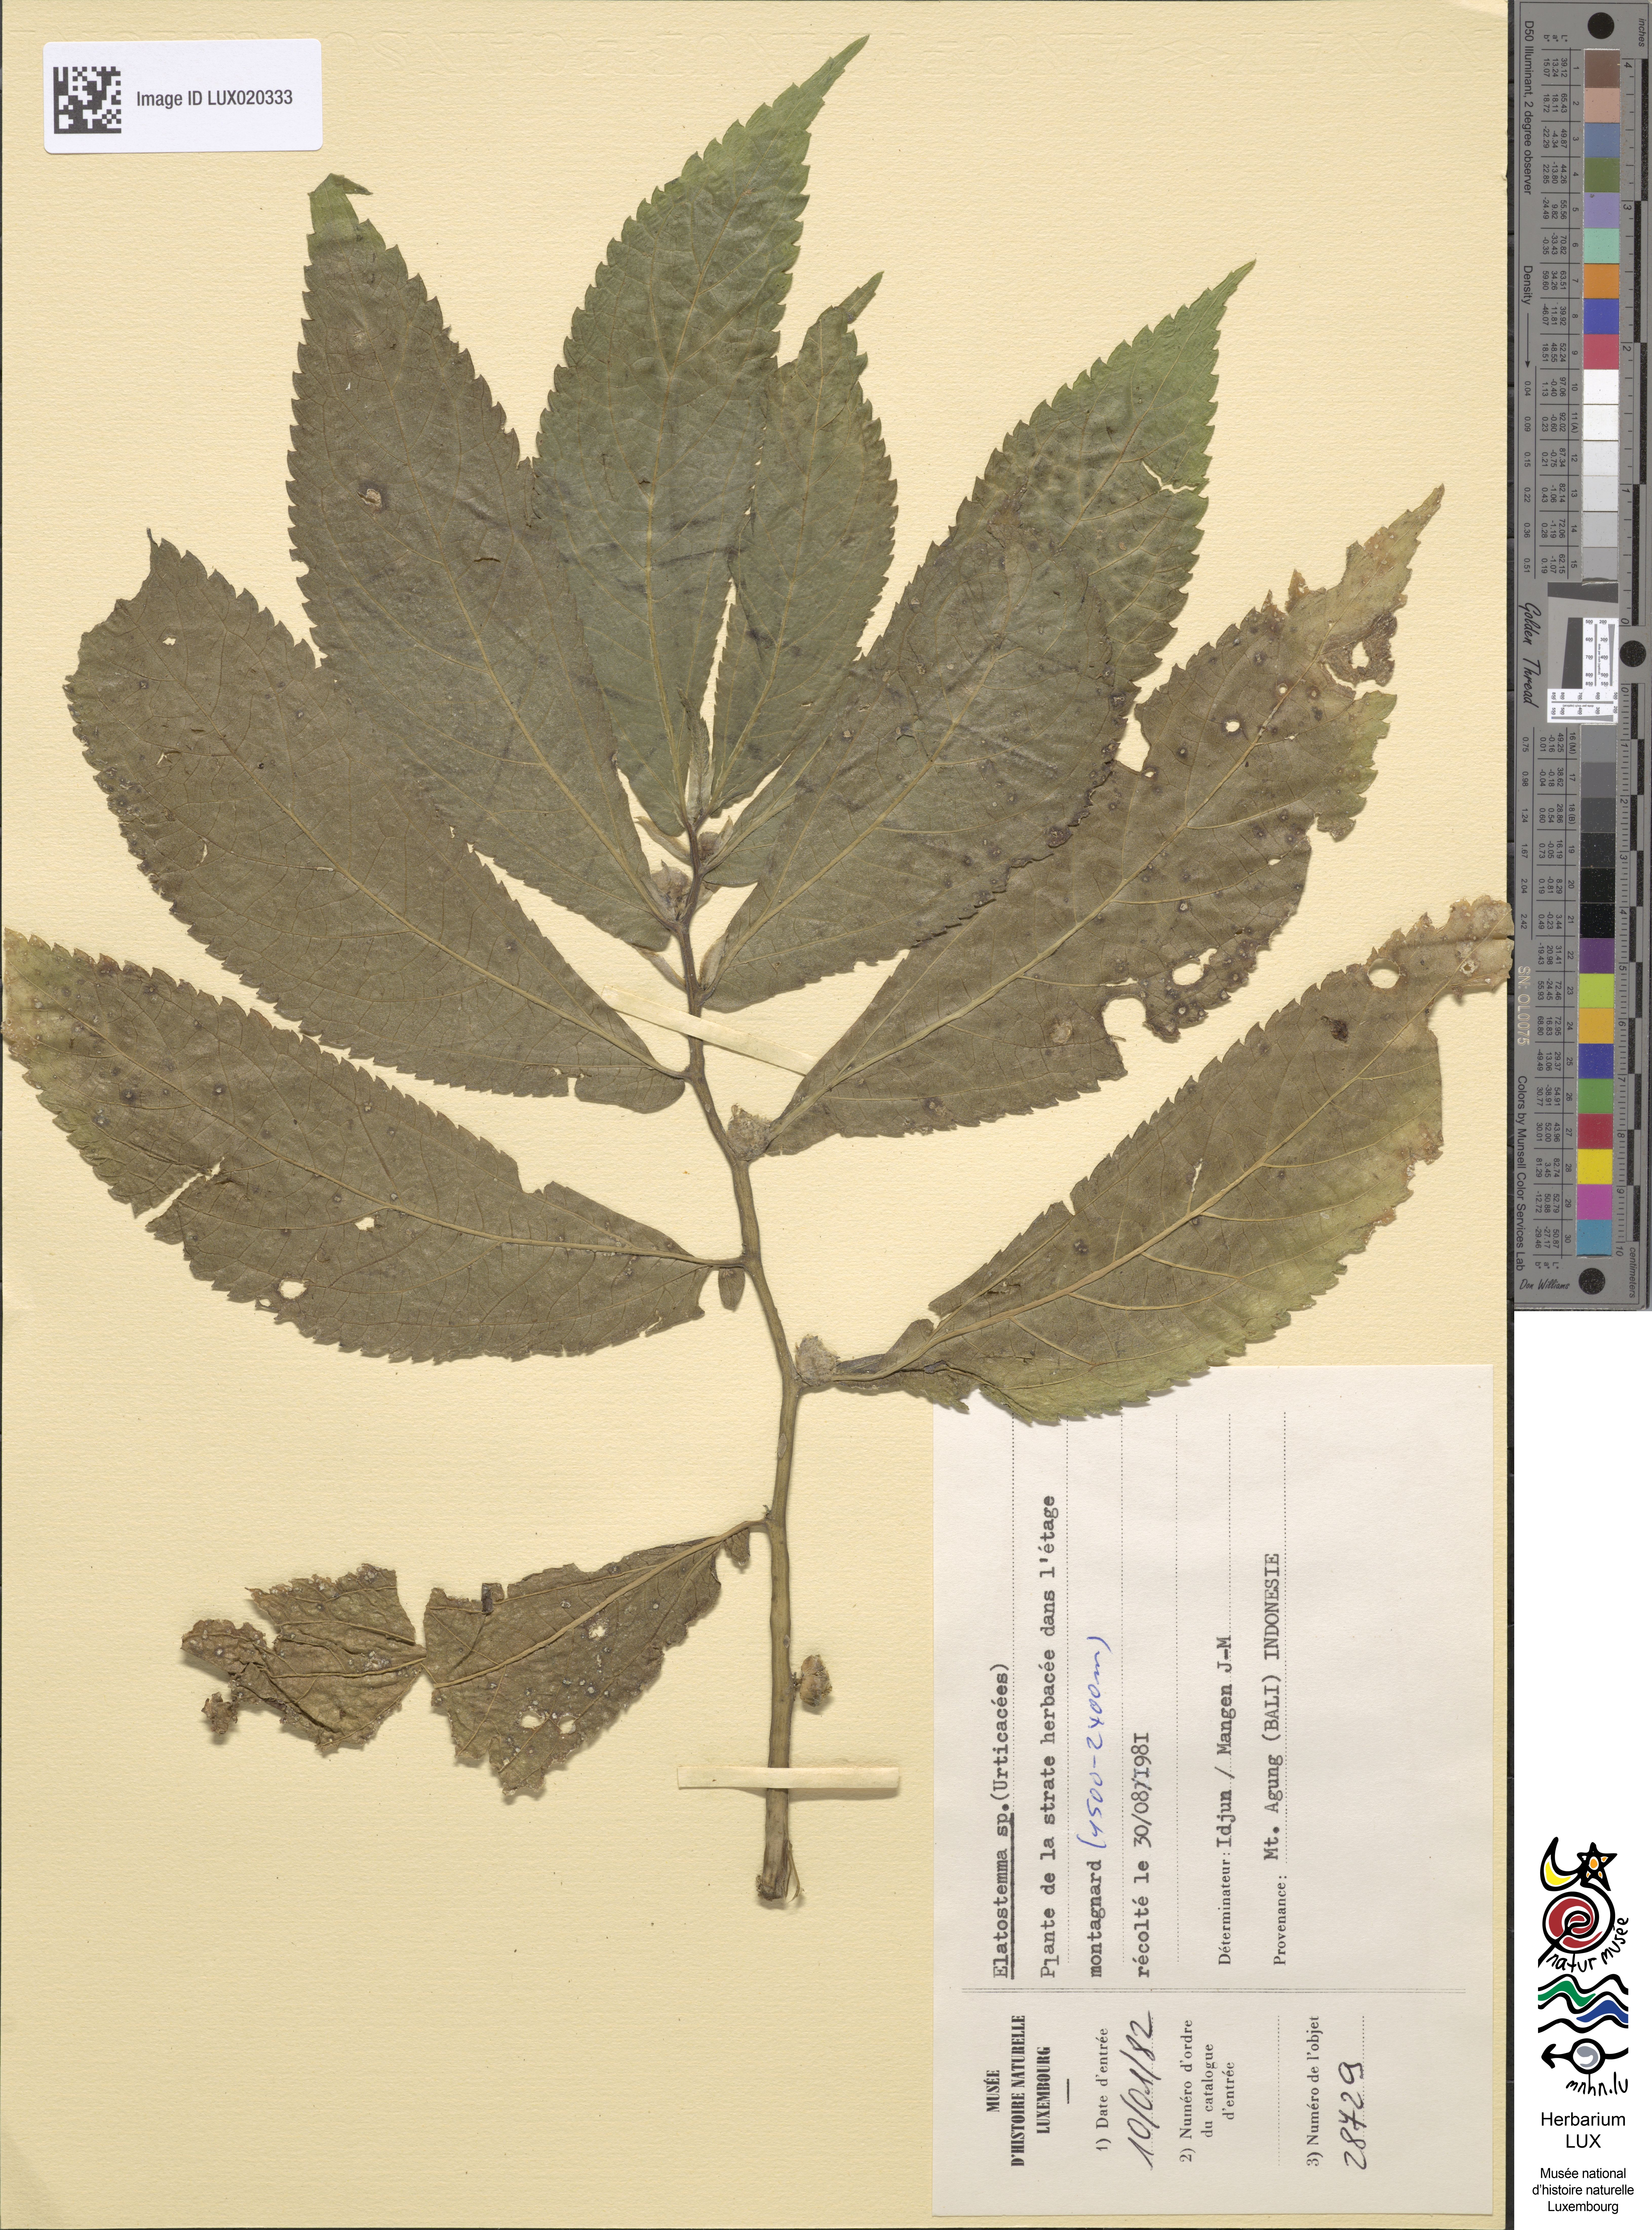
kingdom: Plantae
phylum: Tracheophyta
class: Magnoliopsida
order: Rosales
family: Urticaceae
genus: Elatostema
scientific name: Elatostema
